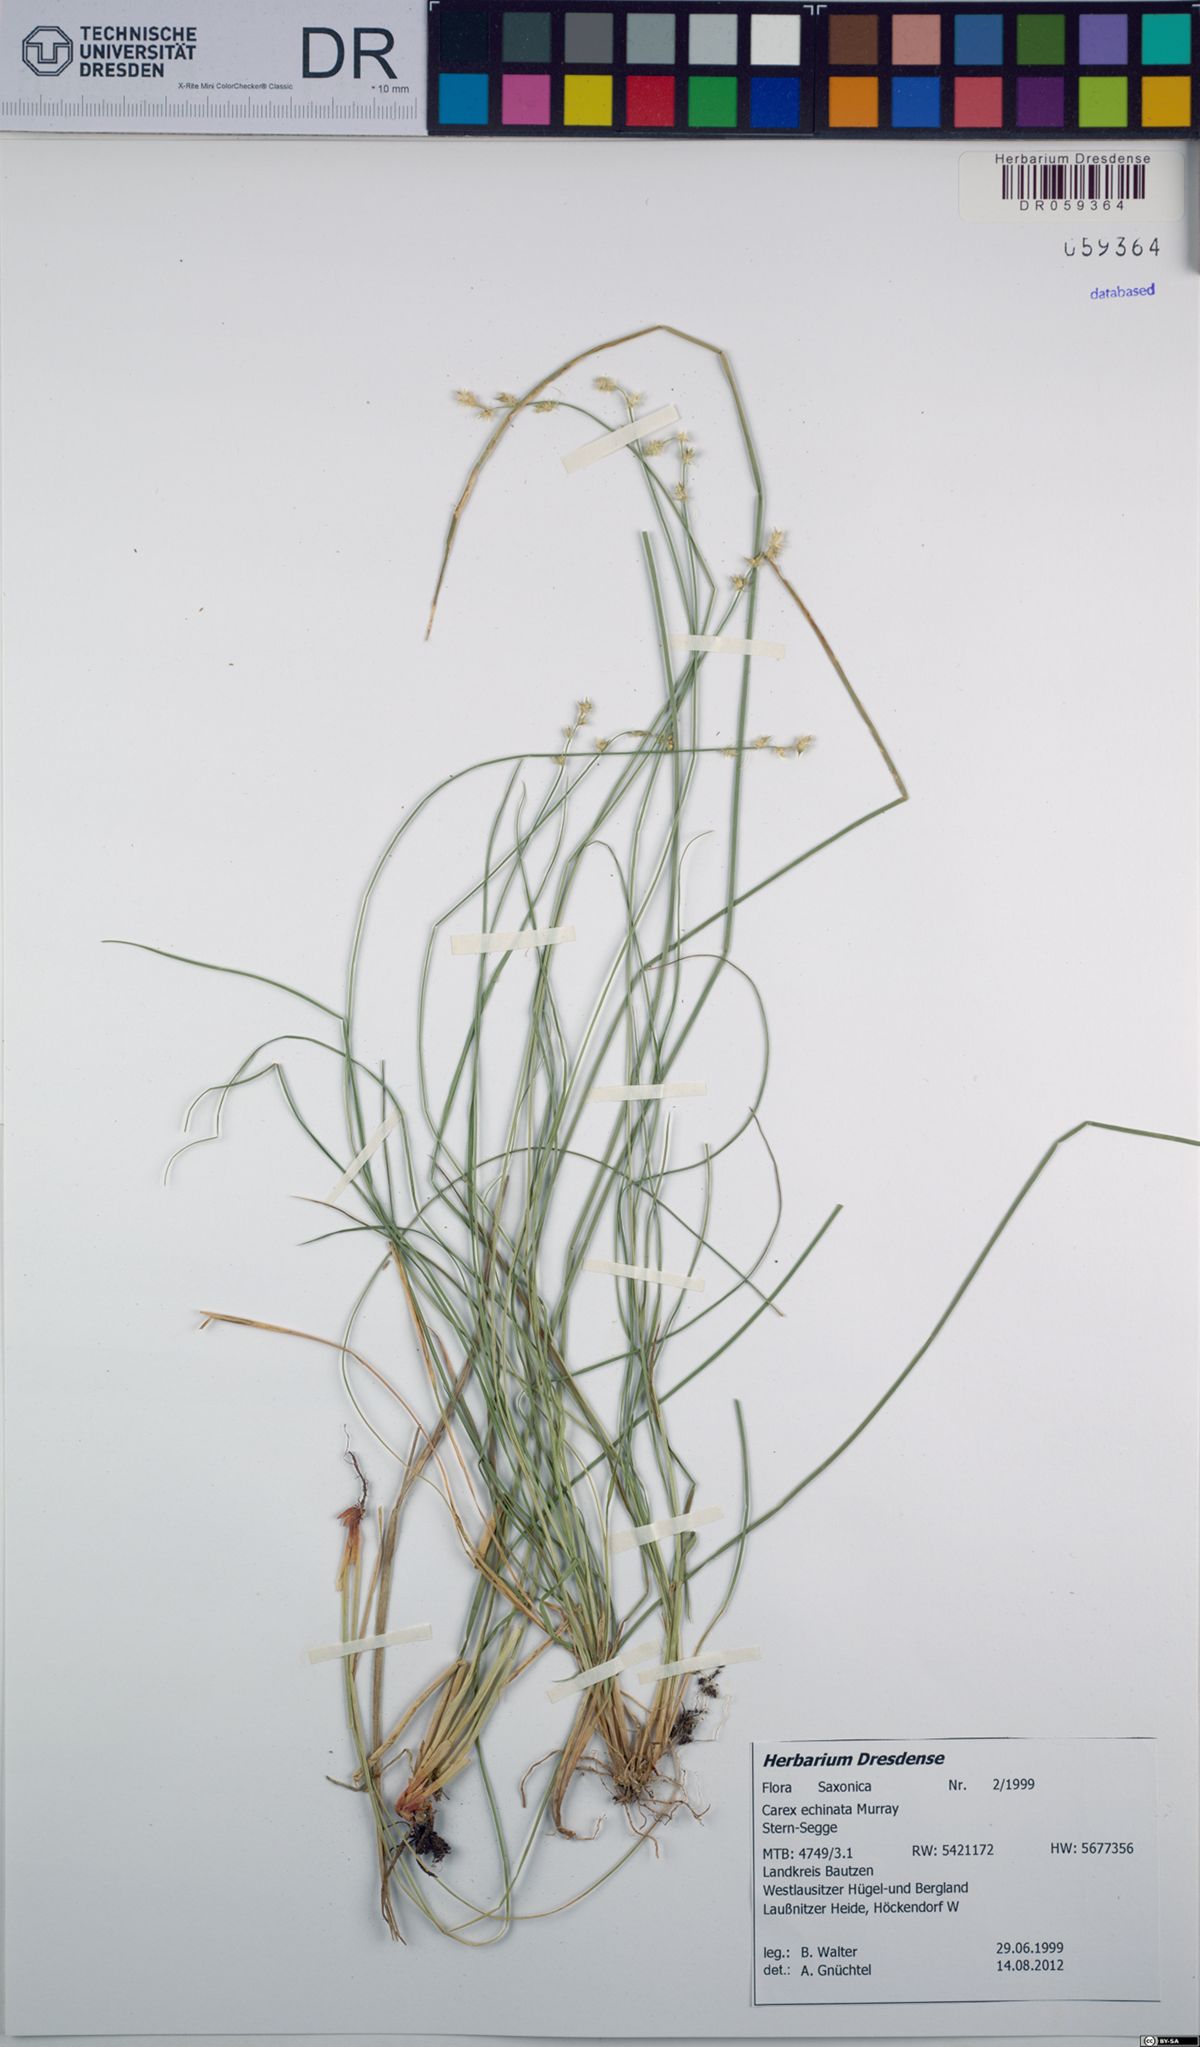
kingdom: Plantae
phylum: Tracheophyta
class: Liliopsida
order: Poales
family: Cyperaceae
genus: Carex
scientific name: Carex echinata
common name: Star sedge
